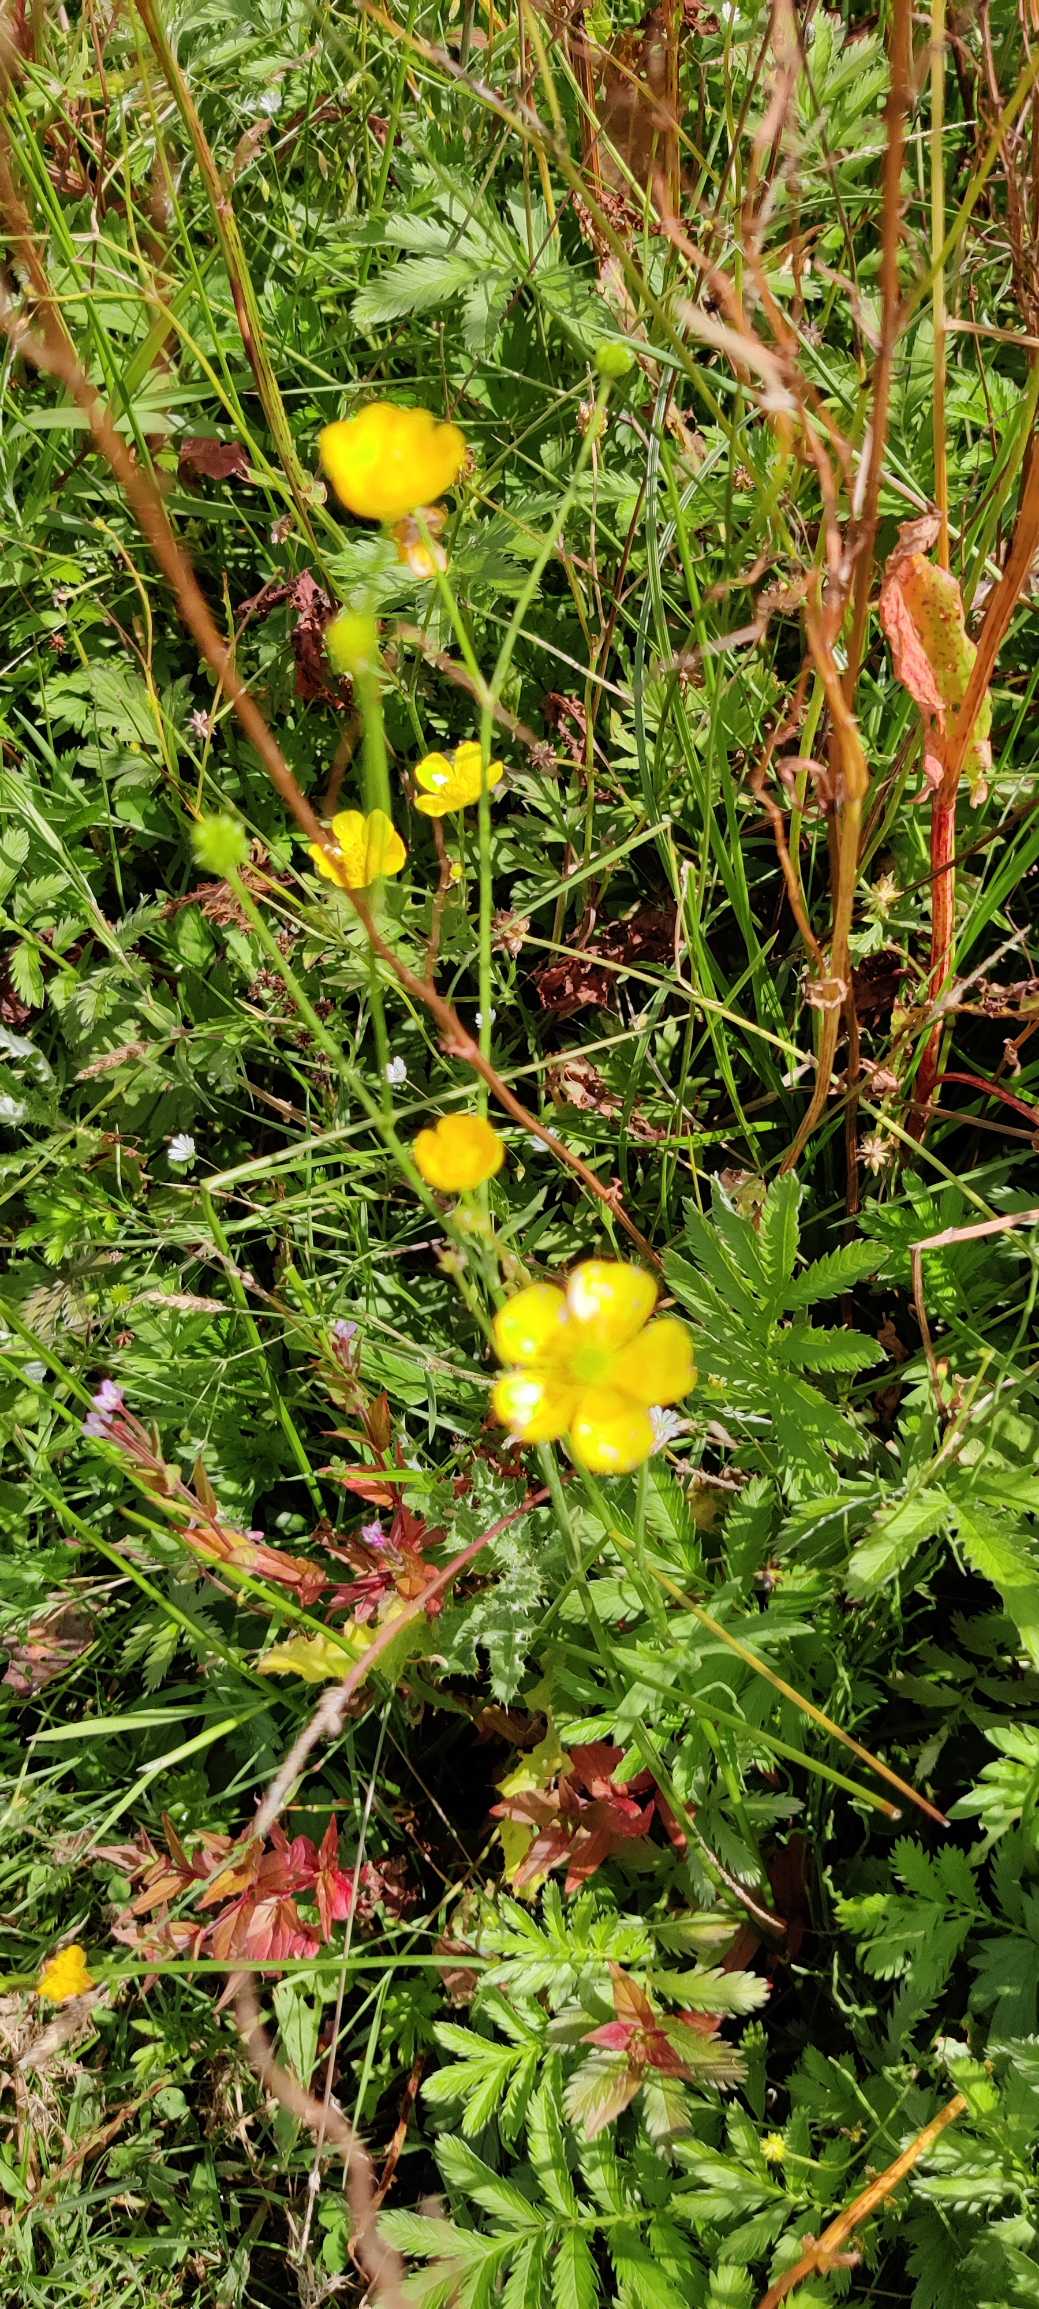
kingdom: Plantae
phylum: Tracheophyta
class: Magnoliopsida
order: Rosales
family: Rosaceae
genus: Argentina
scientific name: Argentina anserina
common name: Gåsepotentil
